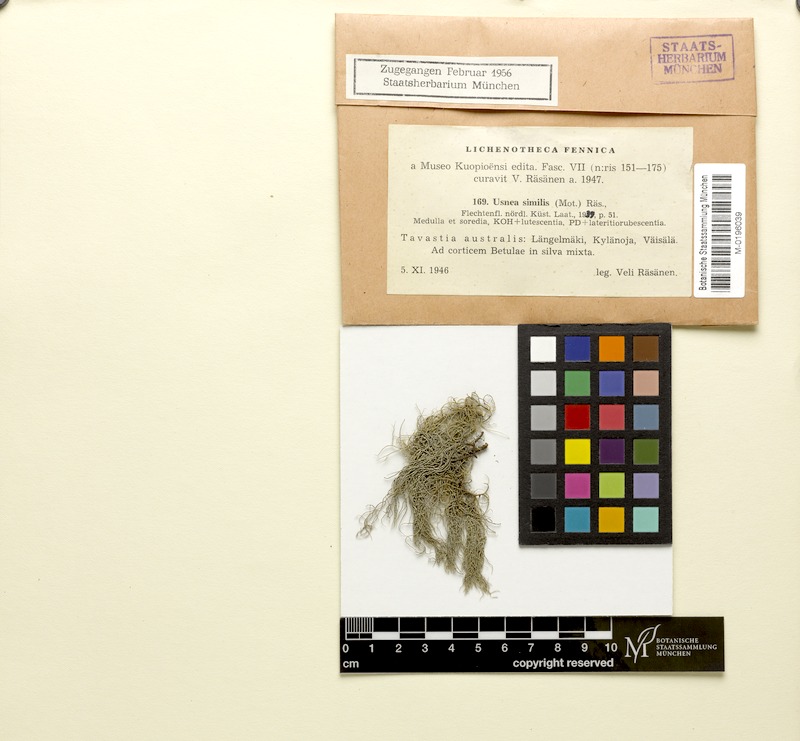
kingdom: Fungi
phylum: Ascomycota
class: Lecanoromycetes
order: Lecanorales
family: Parmeliaceae
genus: Usnea
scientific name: Usnea subfloridana
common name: Boreal beard lichen
